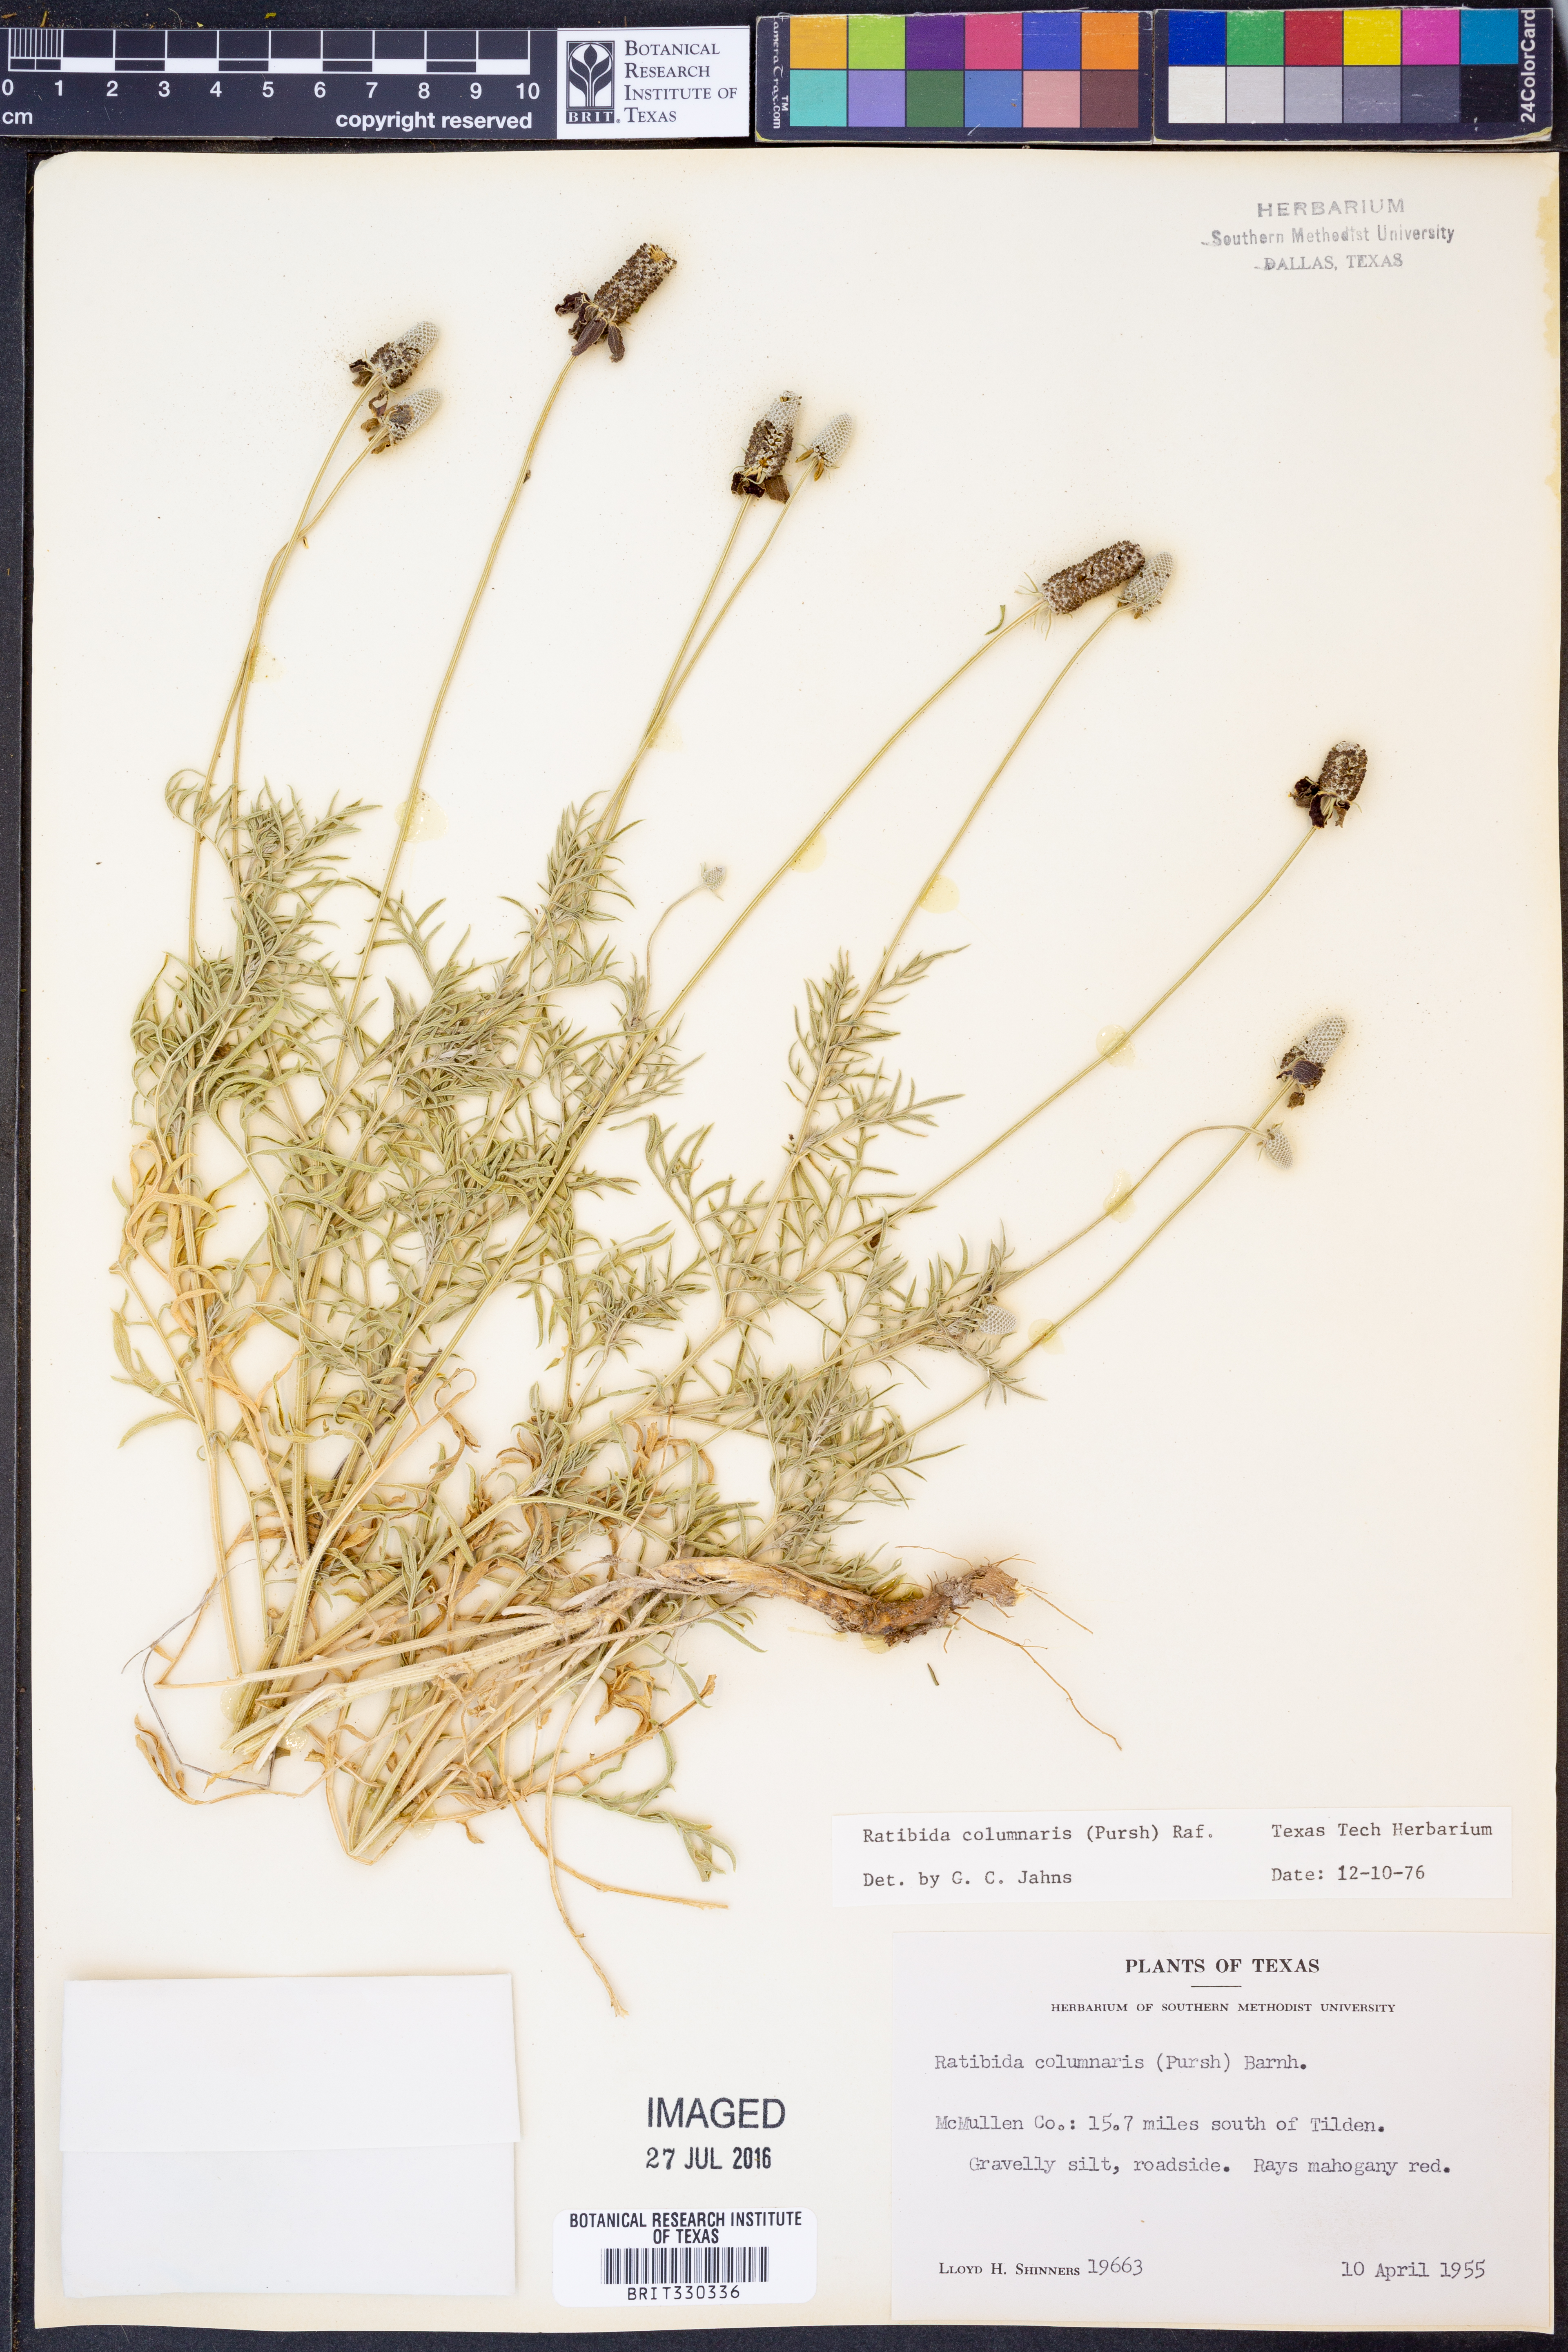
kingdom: Plantae
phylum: Tracheophyta
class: Magnoliopsida
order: Asterales
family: Asteraceae
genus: Ratibida
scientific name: Ratibida columnifera
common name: Prairie coneflower
